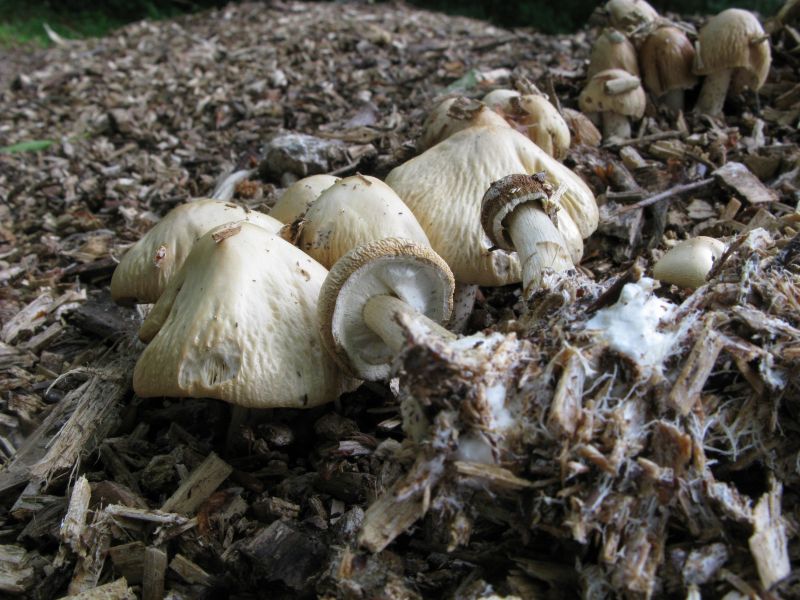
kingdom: Fungi
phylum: Basidiomycota
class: Agaricomycetes
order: Agaricales
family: Strophariaceae
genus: Agrocybe
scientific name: Agrocybe rivulosa
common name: året agerhat
